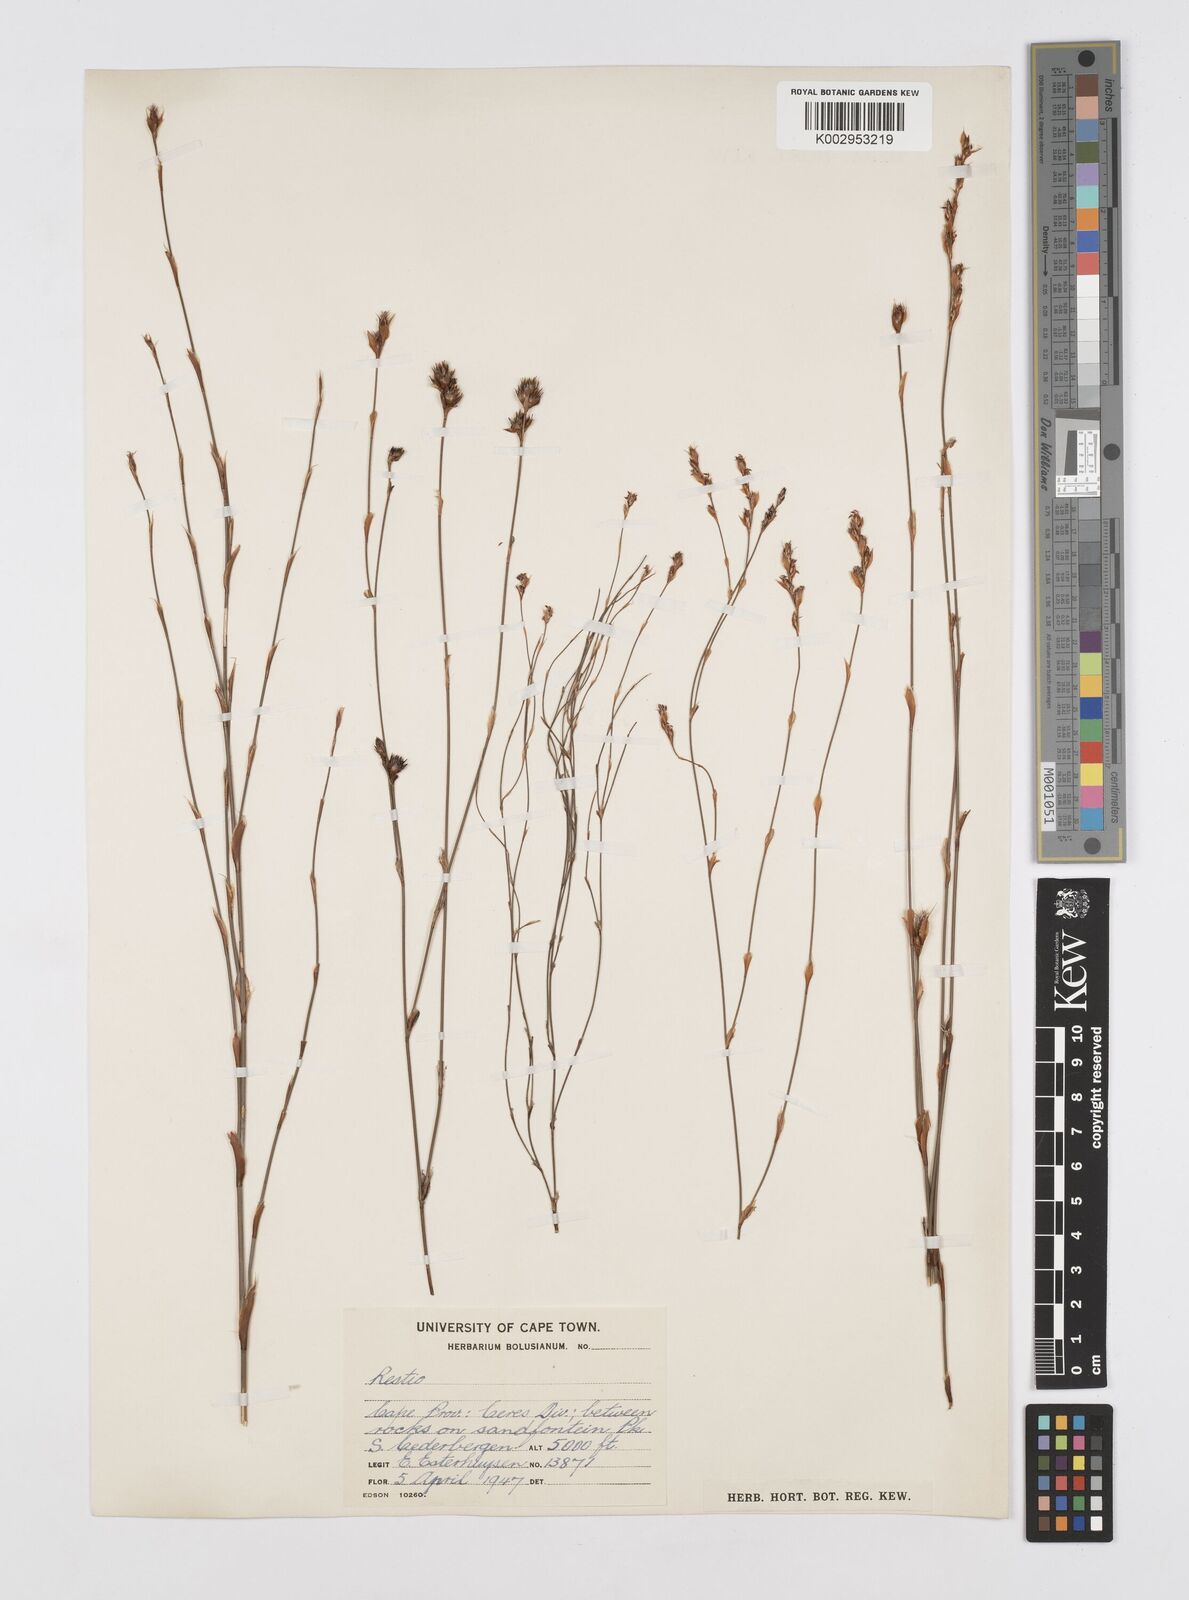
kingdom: Plantae
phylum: Tracheophyta
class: Liliopsida
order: Poales
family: Restionaceae
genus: Restio
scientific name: Restio
